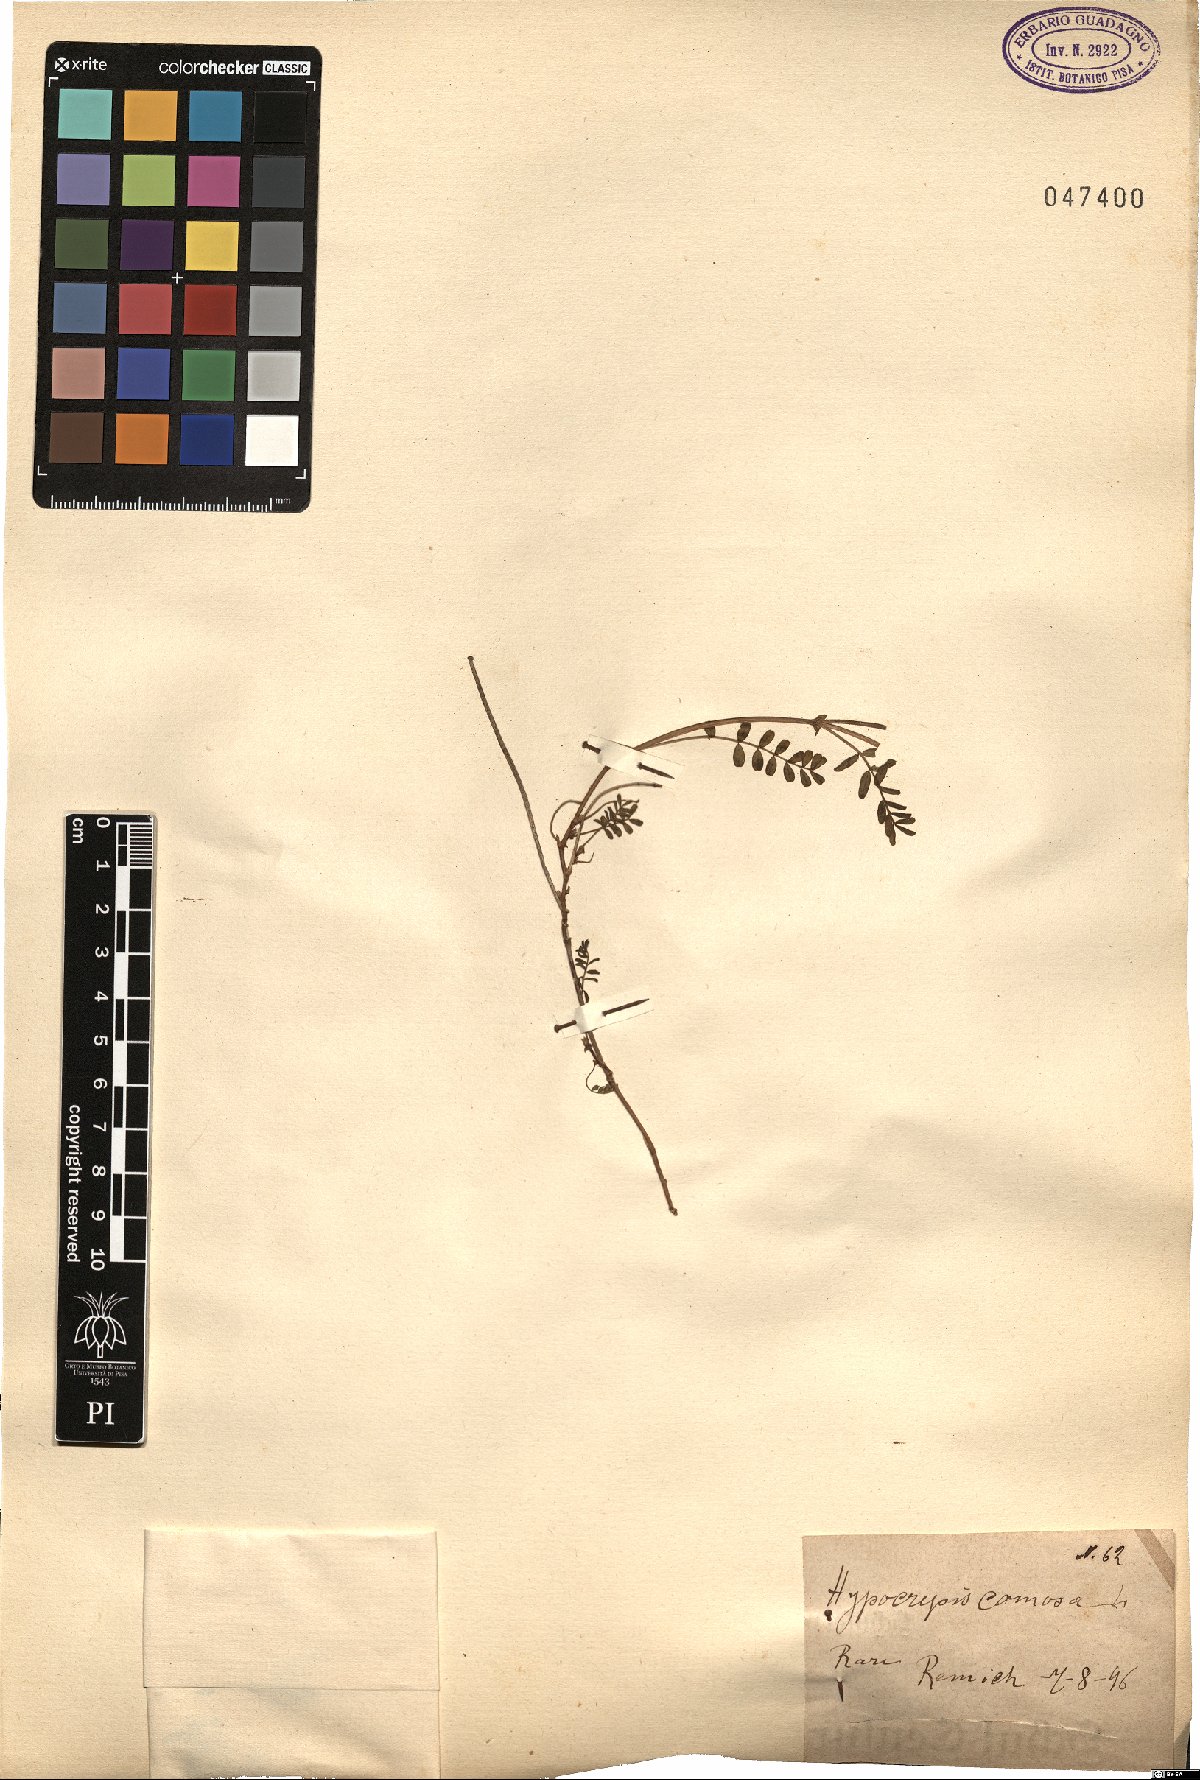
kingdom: Plantae
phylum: Tracheophyta
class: Magnoliopsida
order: Fabales
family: Fabaceae
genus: Hippocrepis
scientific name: Hippocrepis comosa
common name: Horseshoe vetch
